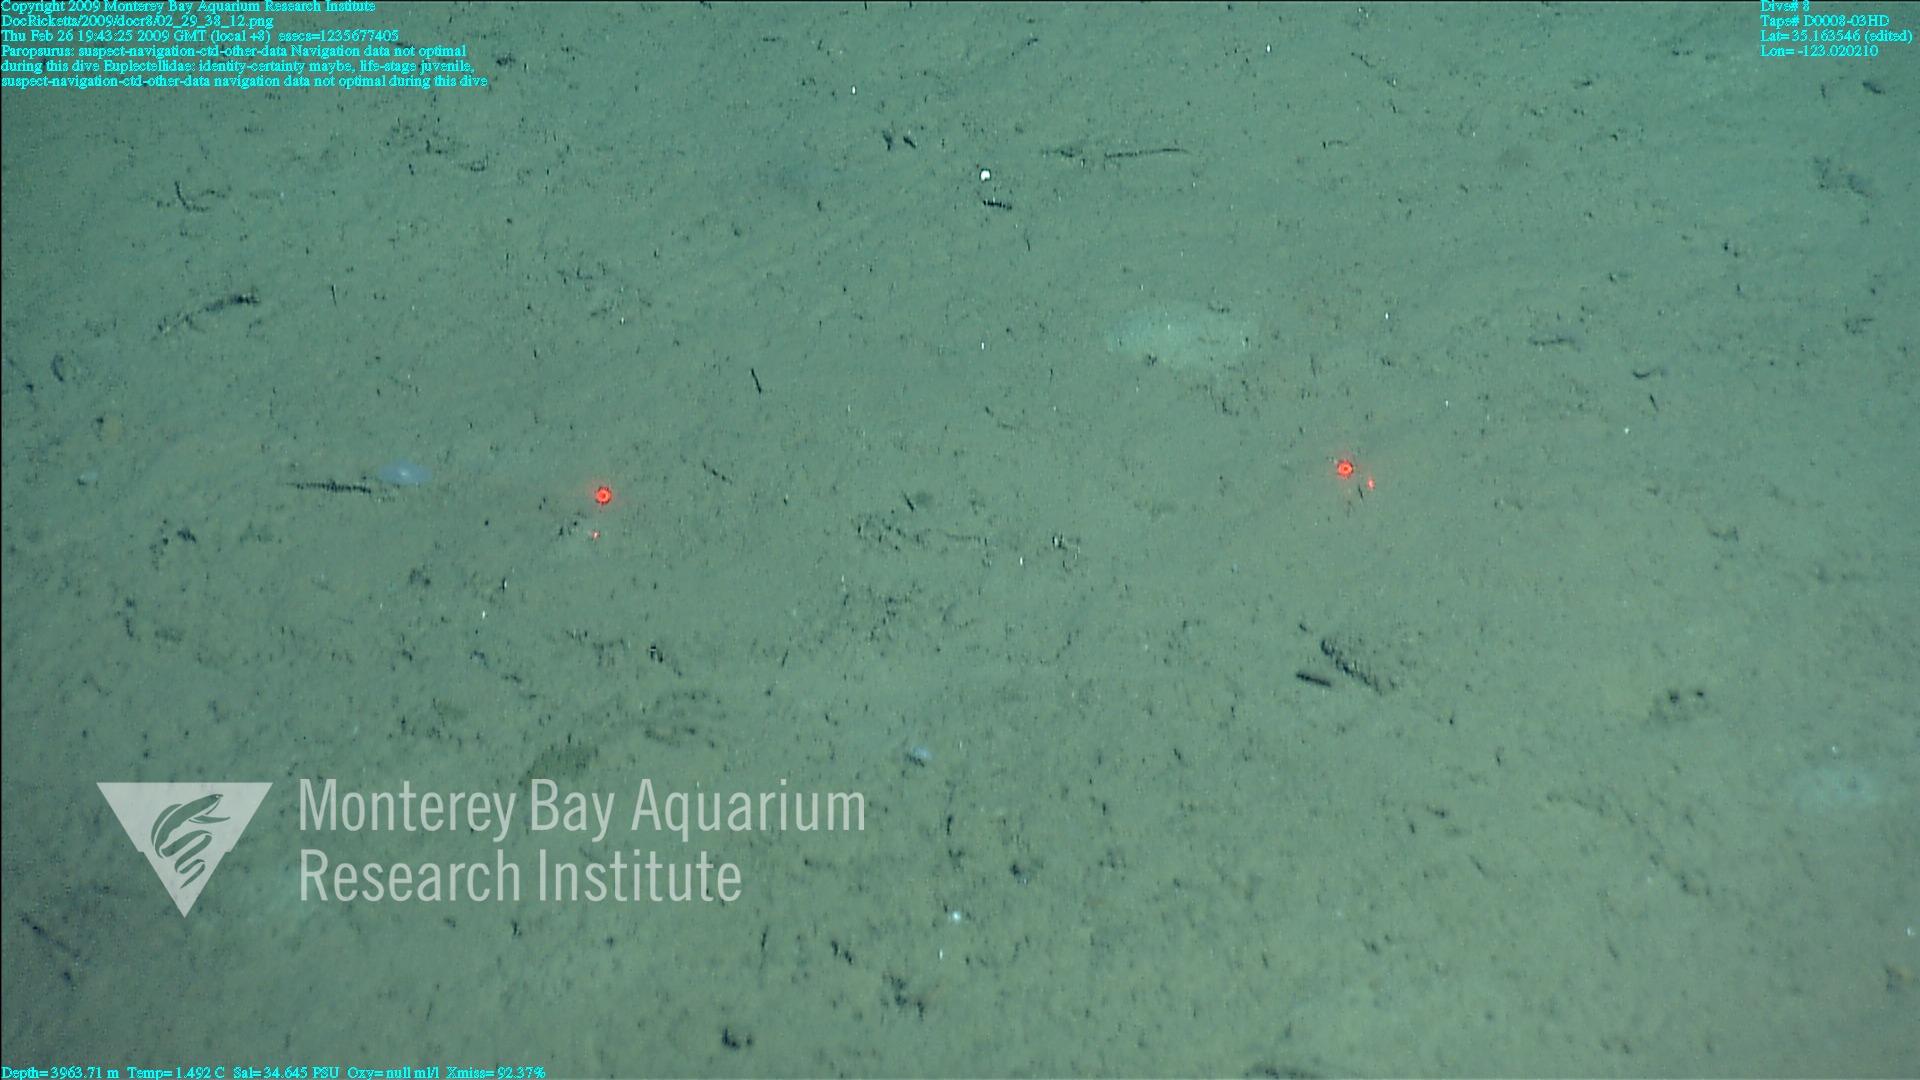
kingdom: Animalia
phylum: Porifera
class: Hexactinellida
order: Lyssacinosida
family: Euplectellidae
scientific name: Euplectellidae
